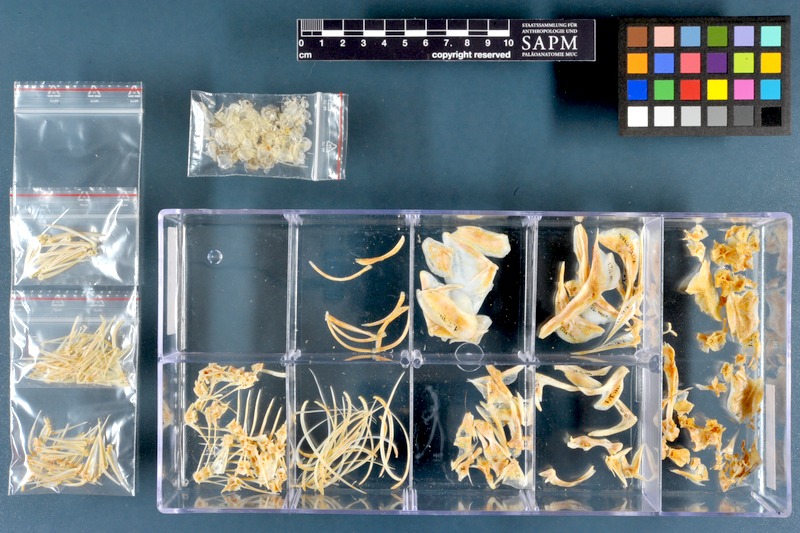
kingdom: Animalia
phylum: Chordata
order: Perciformes
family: Cichlidae
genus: Oreochromis
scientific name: Oreochromis mossambicus
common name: Mozambique tilapia
